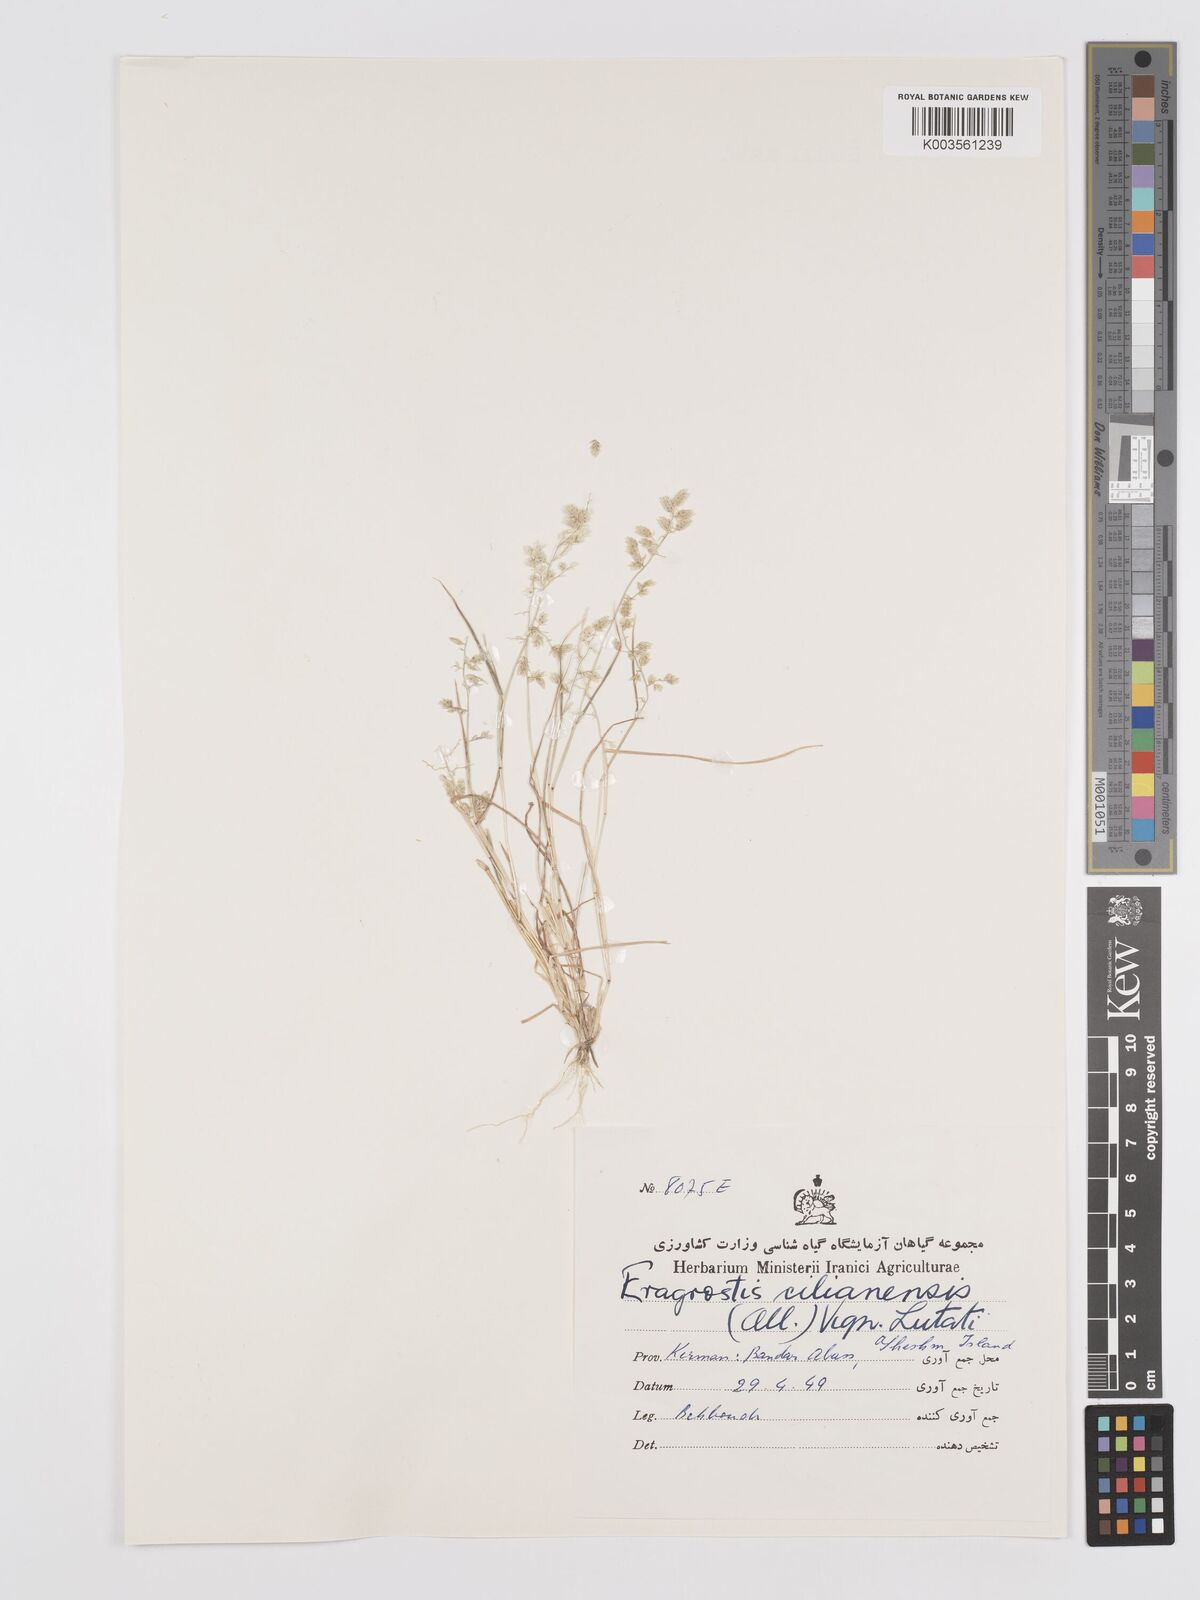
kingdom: Plantae
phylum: Tracheophyta
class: Liliopsida
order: Poales
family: Poaceae
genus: Eragrostis
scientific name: Eragrostis cilianensis
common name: Stinkgrass
